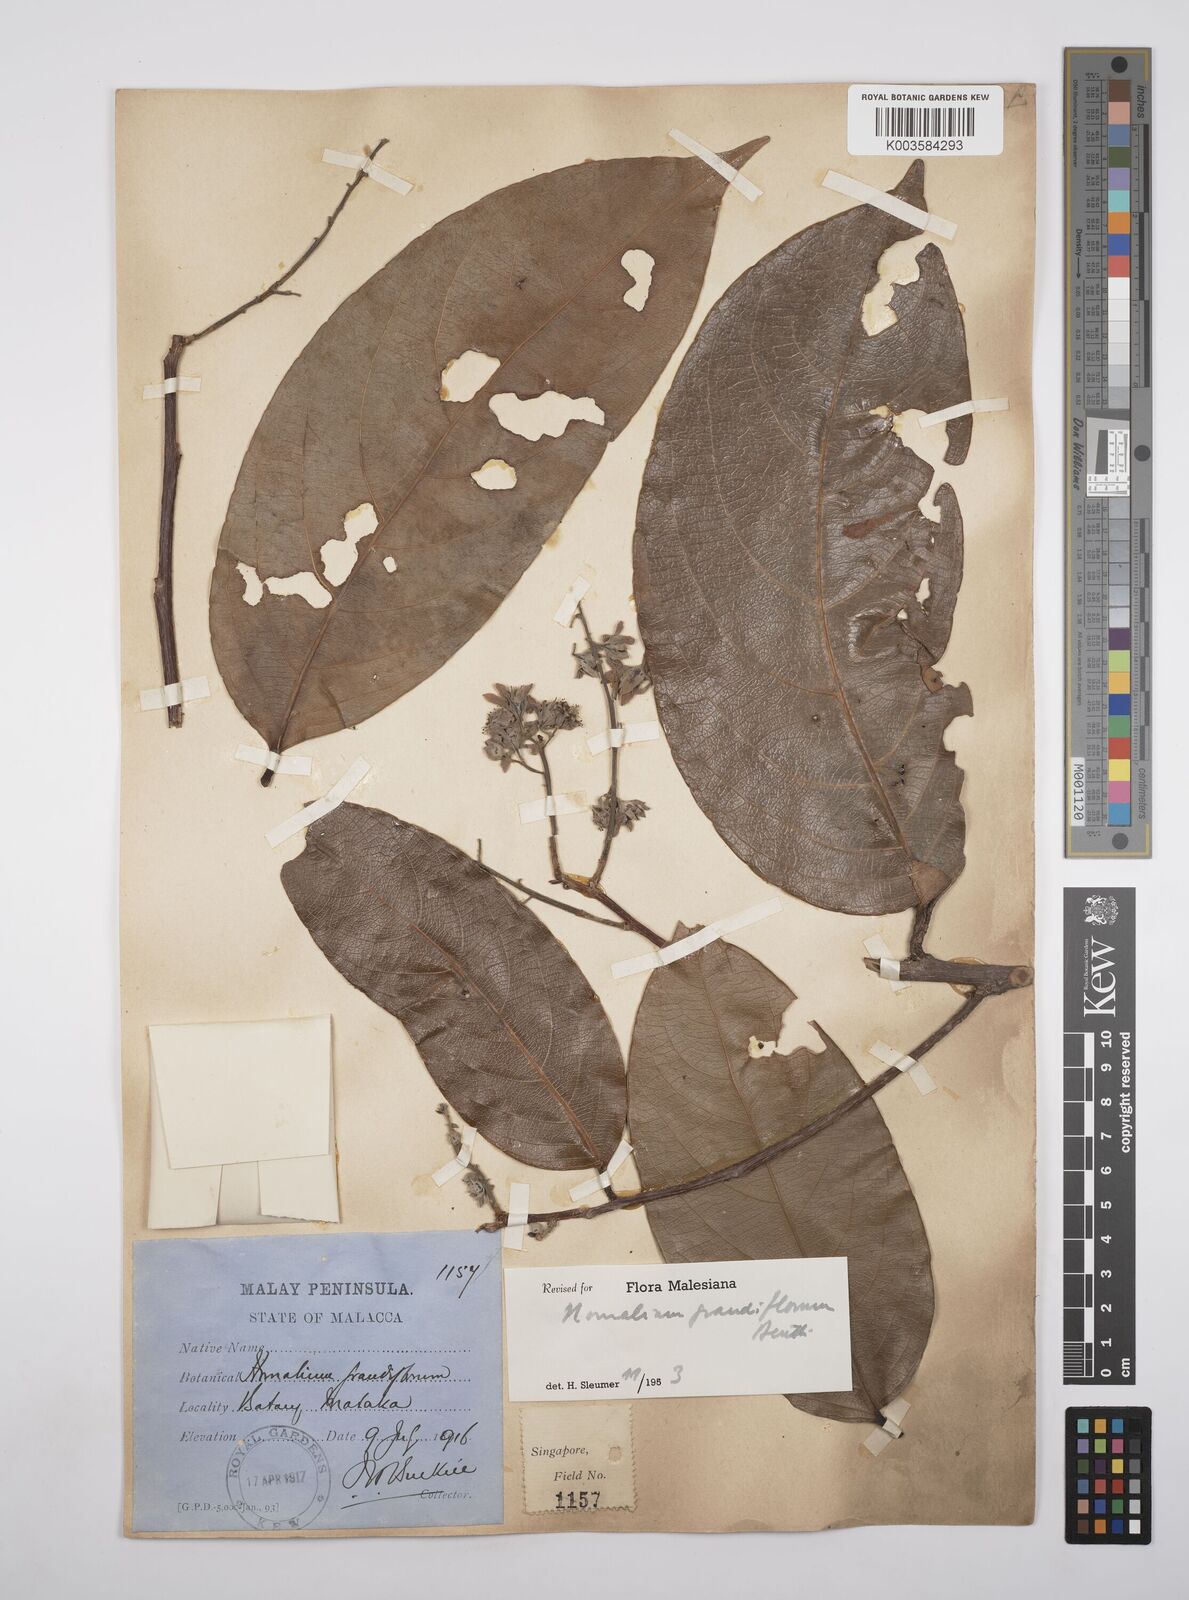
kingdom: Plantae
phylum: Tracheophyta
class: Magnoliopsida
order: Malpighiales
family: Salicaceae
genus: Homalium
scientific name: Homalium grandiflorum
